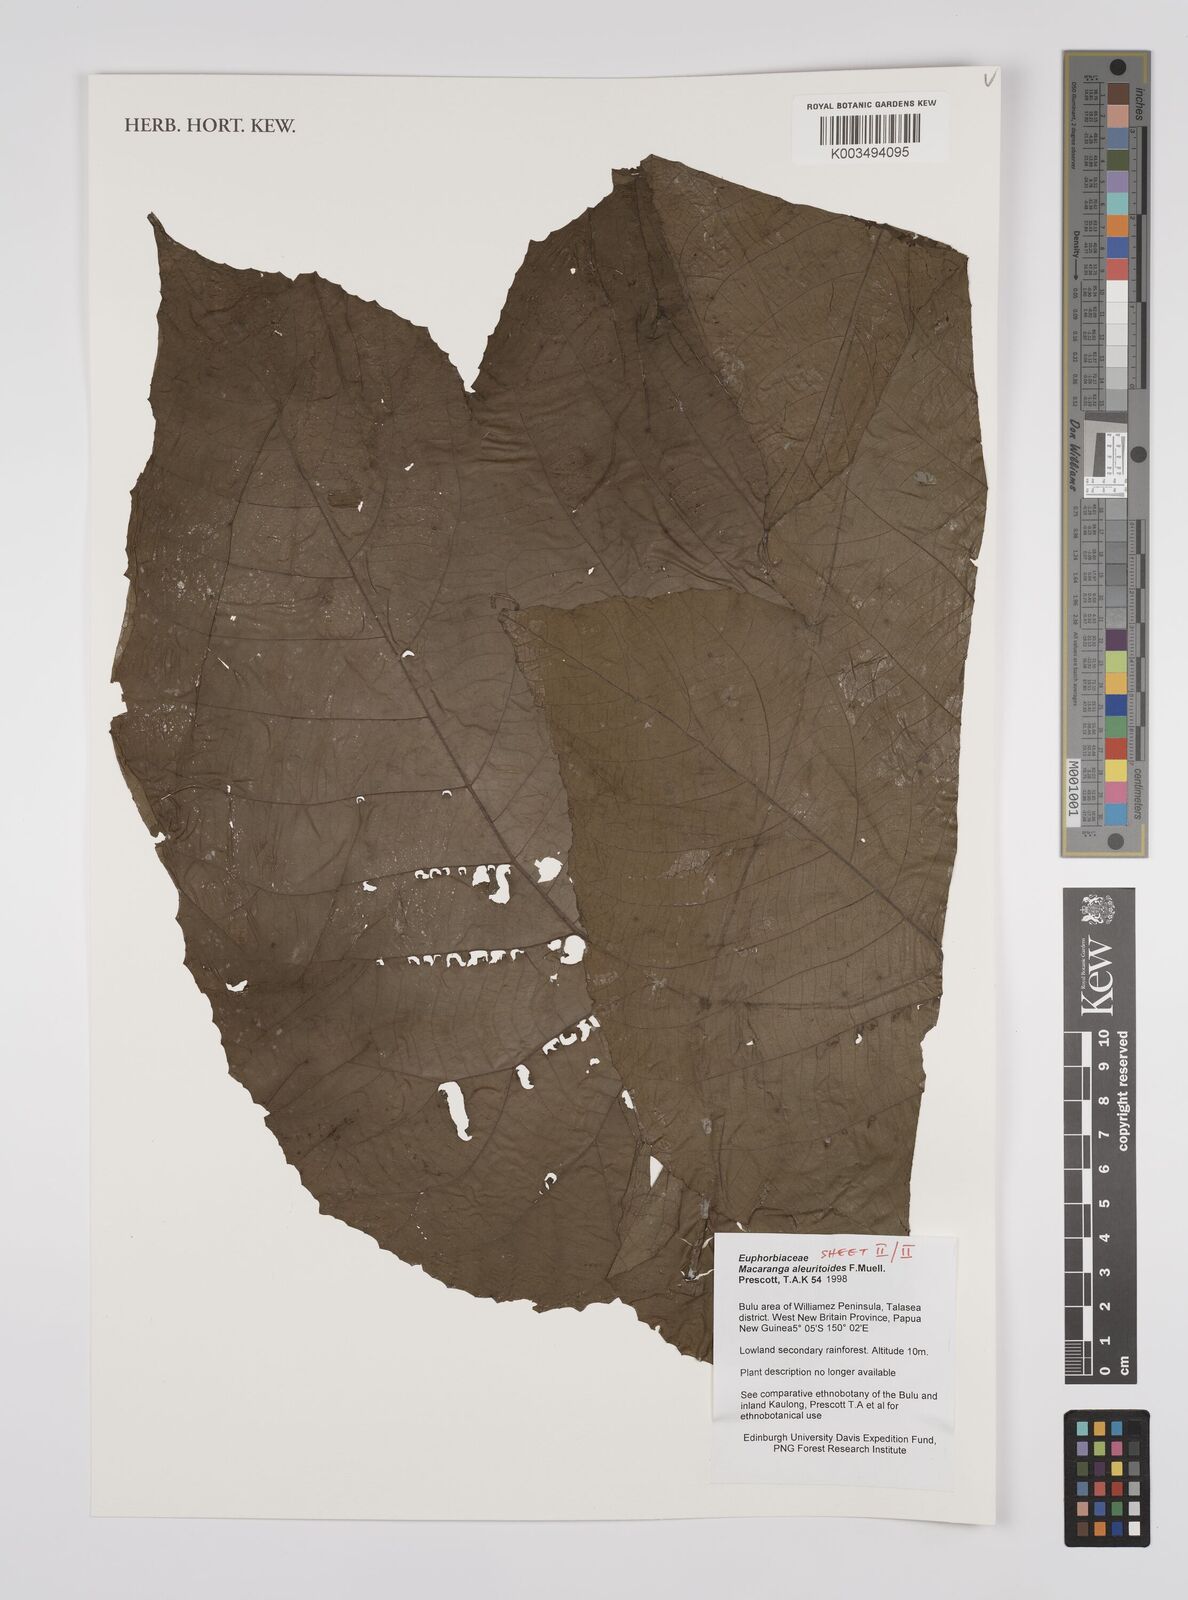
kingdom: Plantae
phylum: Tracheophyta
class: Magnoliopsida
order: Malpighiales
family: Euphorbiaceae
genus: Macaranga
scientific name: Macaranga aleuritoides
